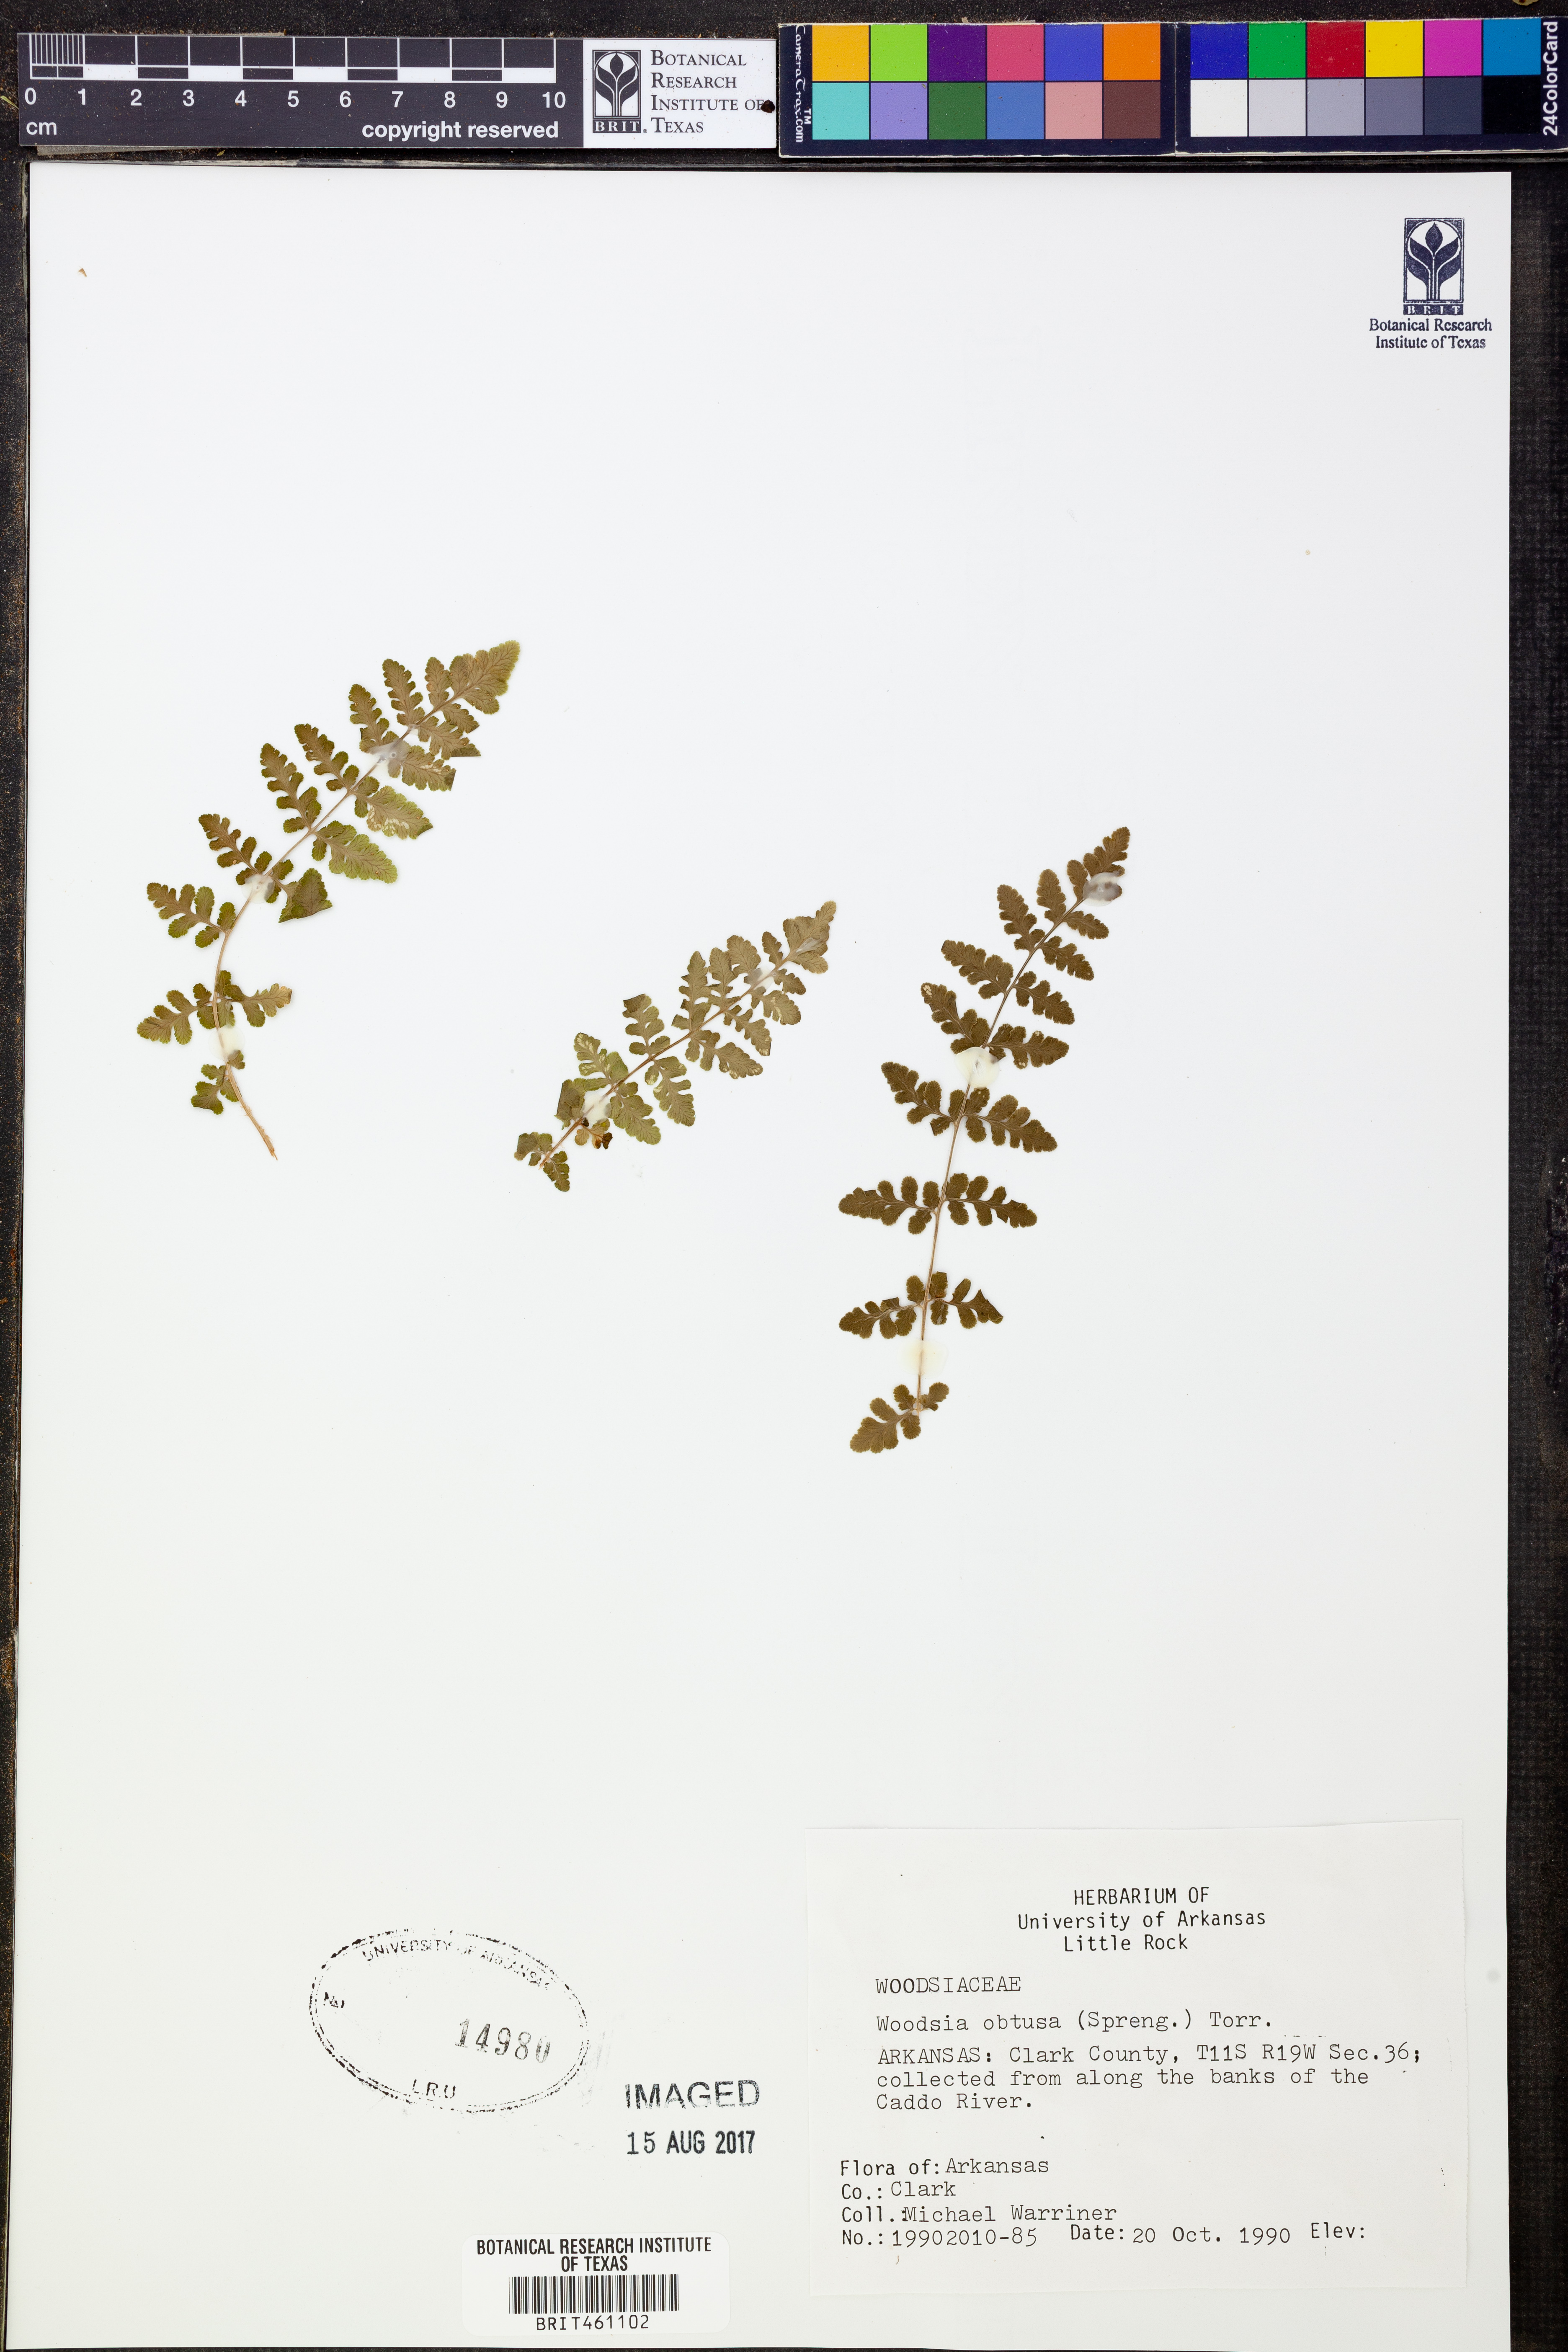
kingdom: Plantae
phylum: Tracheophyta
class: Polypodiopsida
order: Polypodiales
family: Woodsiaceae
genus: Physematium
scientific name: Physematium obtusum
